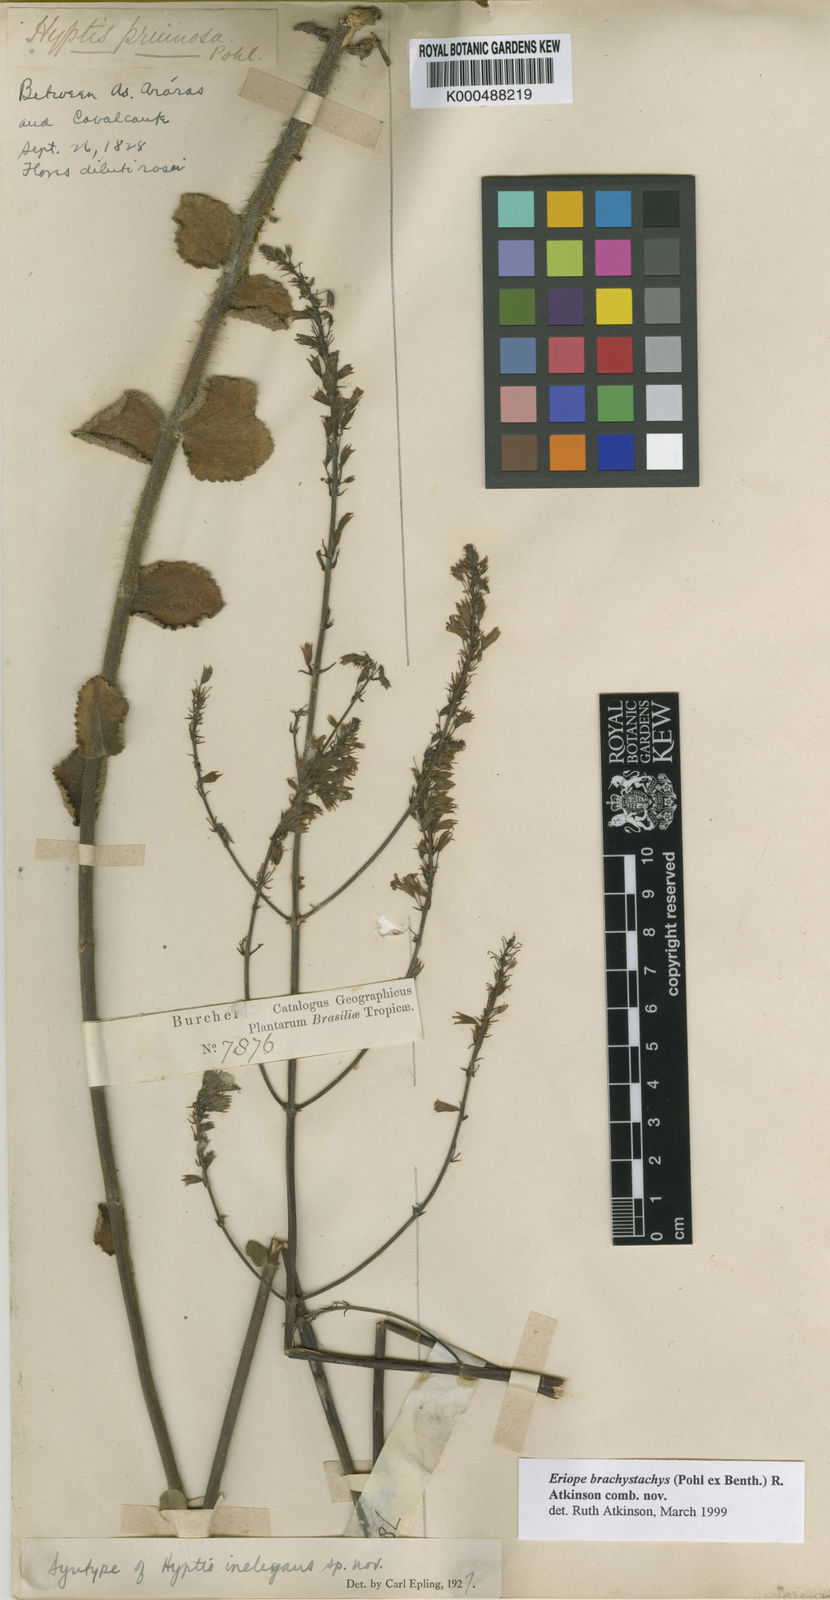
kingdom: Plantae
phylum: Tracheophyta
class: Magnoliopsida
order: Lamiales
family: Lamiaceae
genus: Hypenia
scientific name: Hypenia brachystachys
